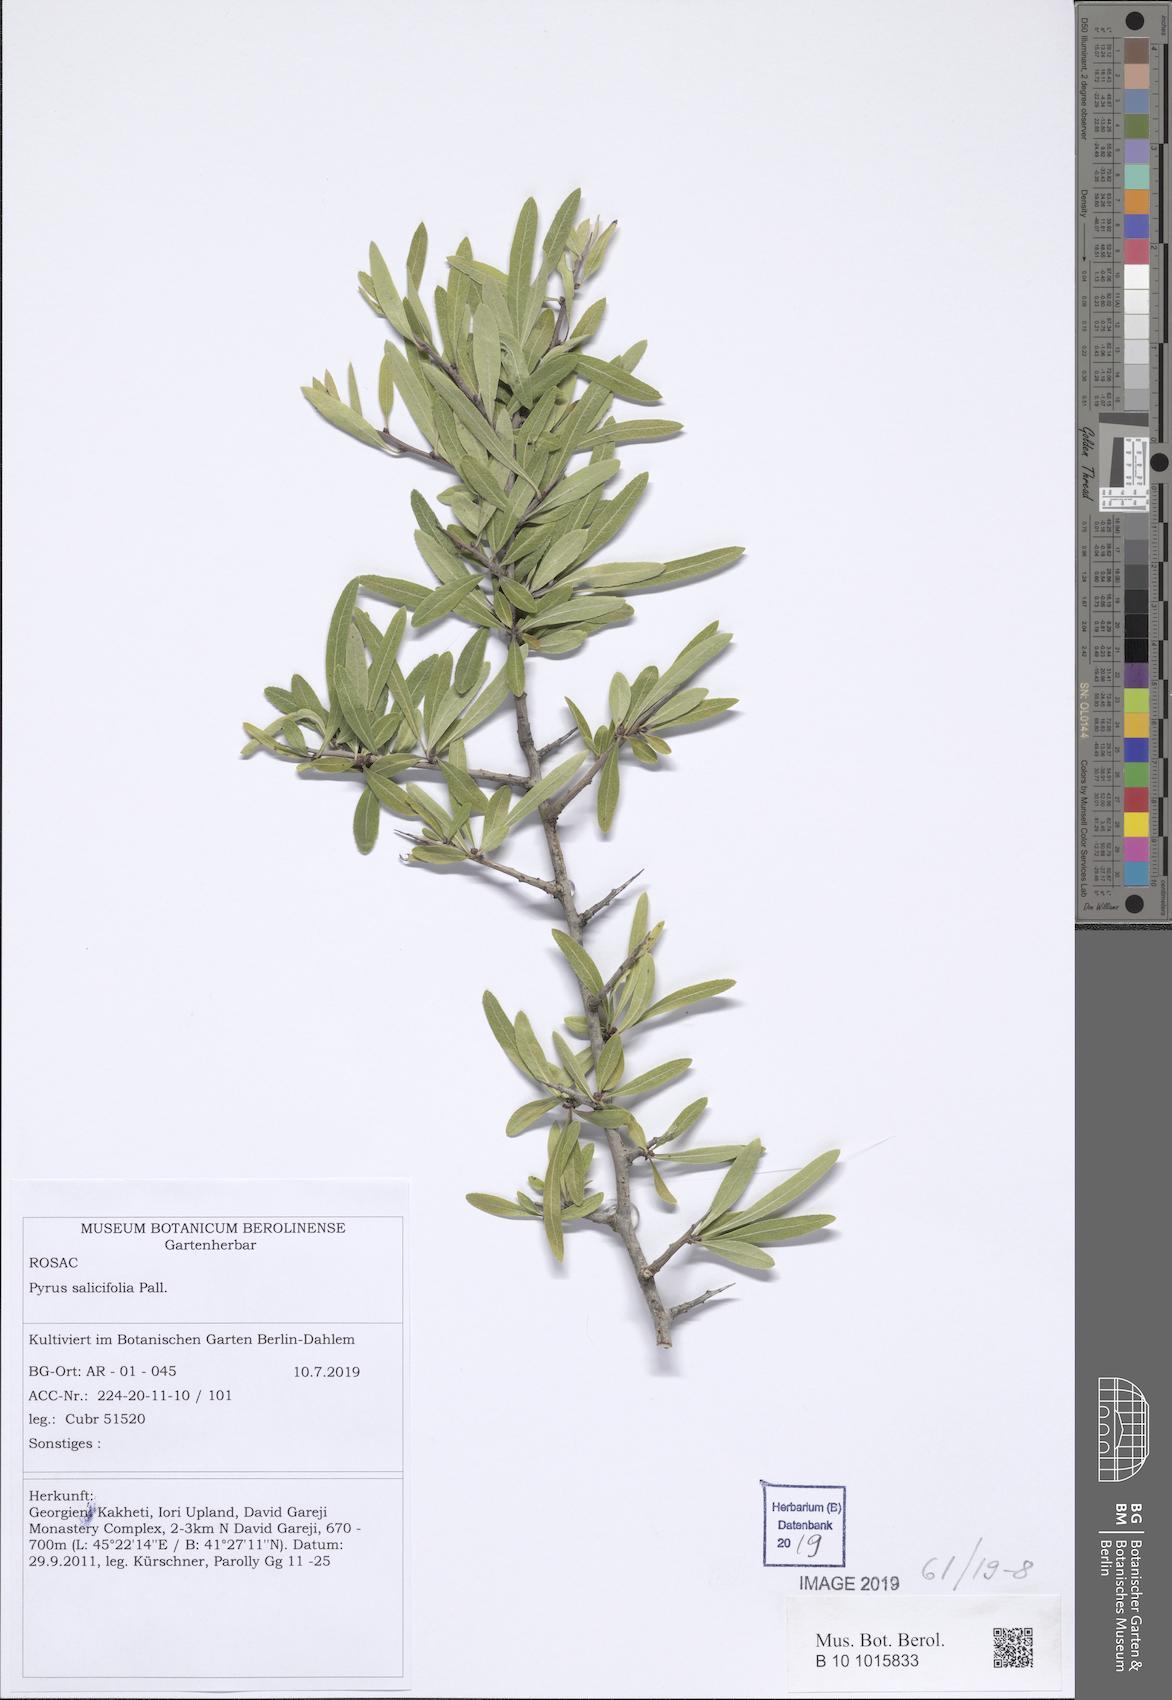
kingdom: Plantae
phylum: Tracheophyta
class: Magnoliopsida
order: Rosales
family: Rosaceae
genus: Pyrus
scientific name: Pyrus salicifolia
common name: Willow-leaved pear
